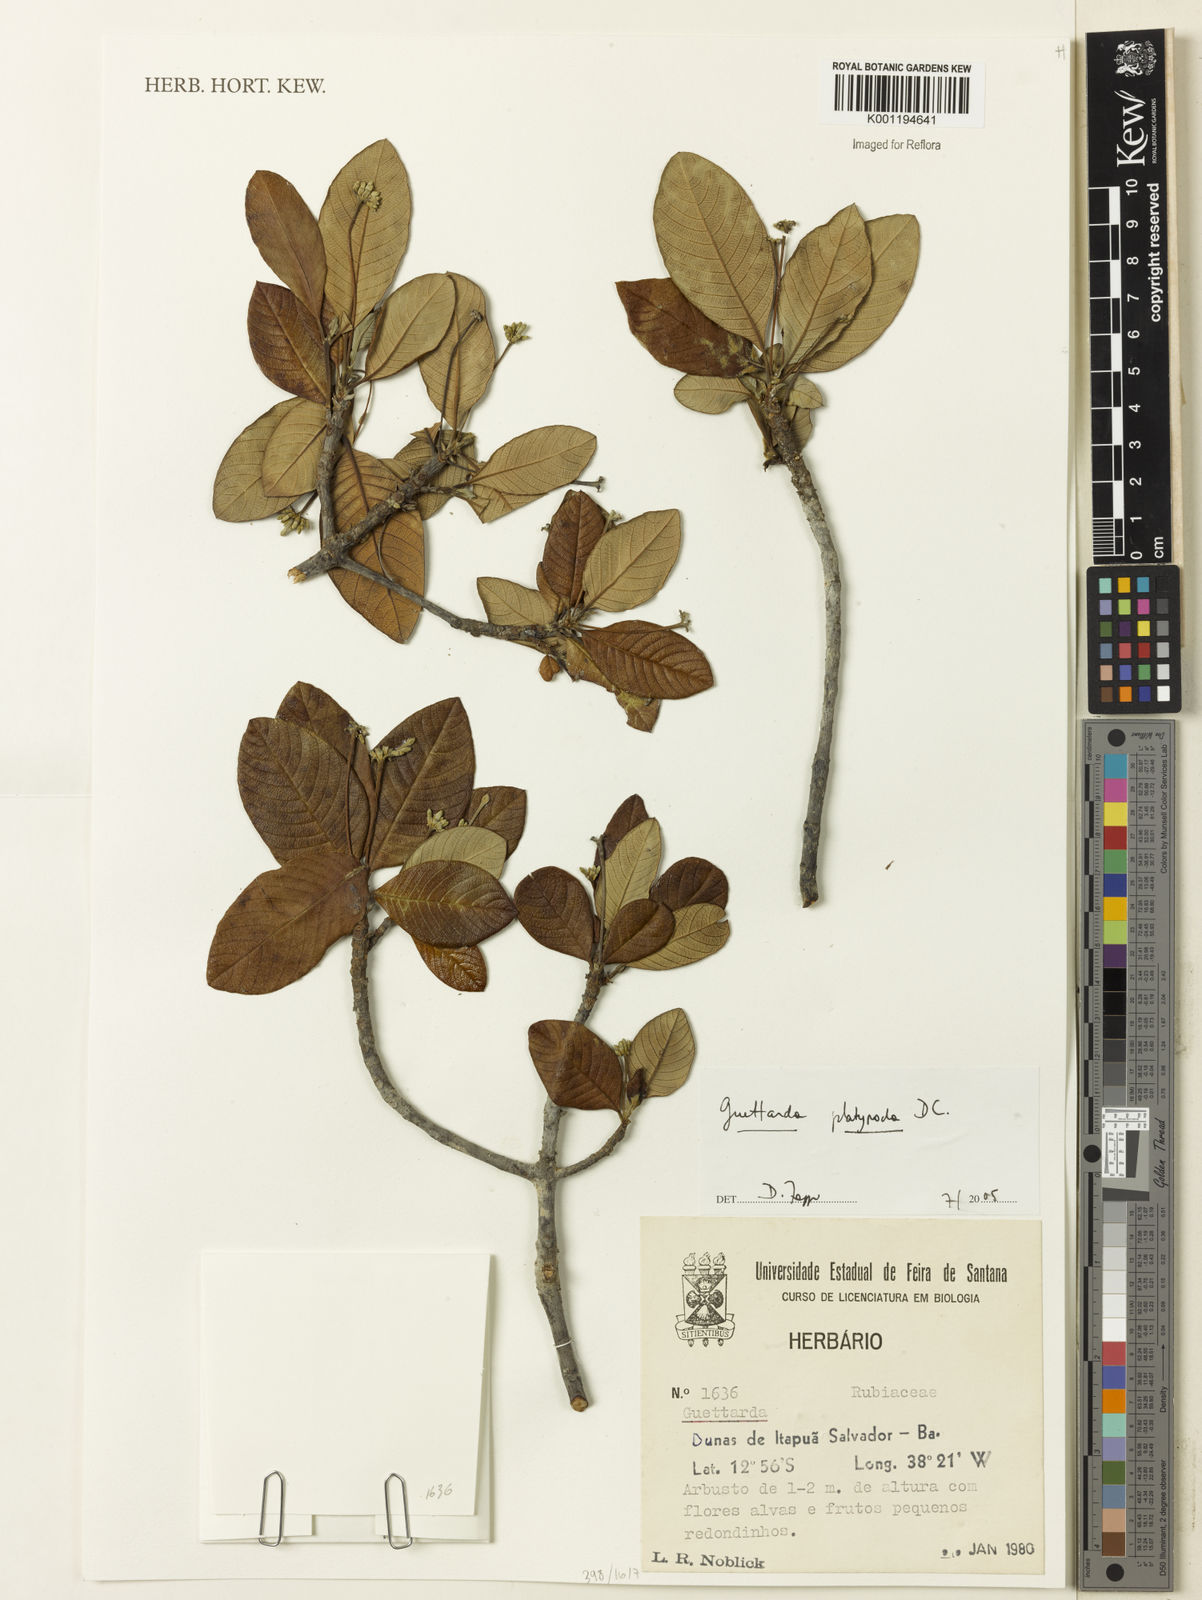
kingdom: Plantae
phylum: Tracheophyta
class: Magnoliopsida
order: Gentianales
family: Rubiaceae
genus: Guettarda
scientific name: Guettarda platypoda
